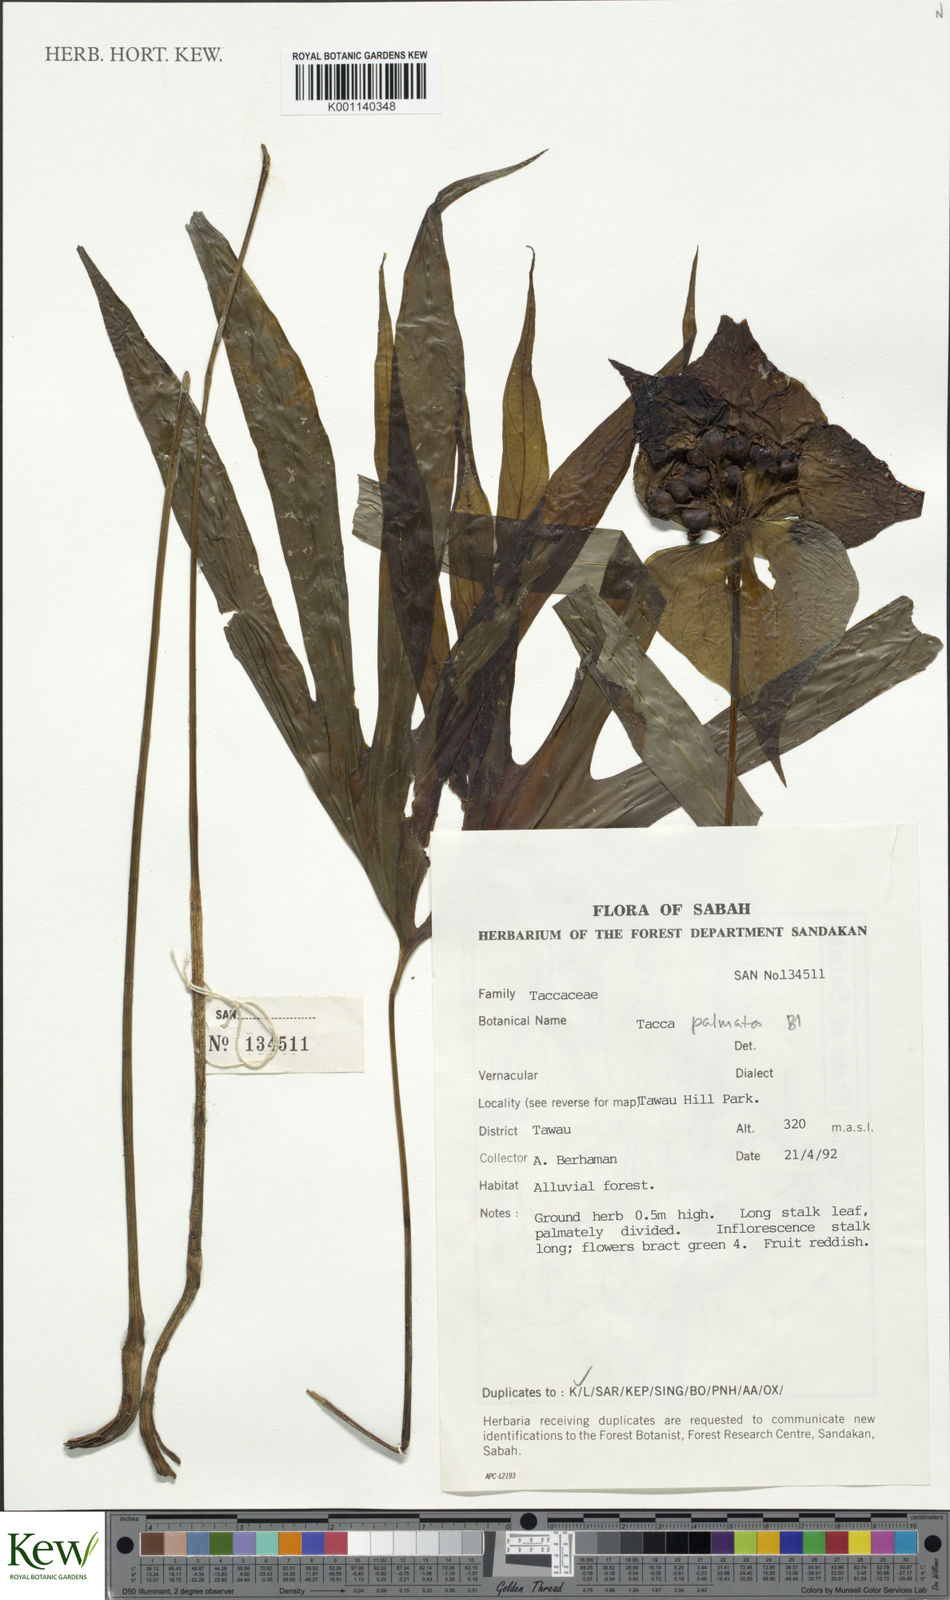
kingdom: Plantae
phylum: Tracheophyta
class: Liliopsida
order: Dioscoreales
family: Dioscoreaceae
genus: Tacca
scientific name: Tacca palmata
